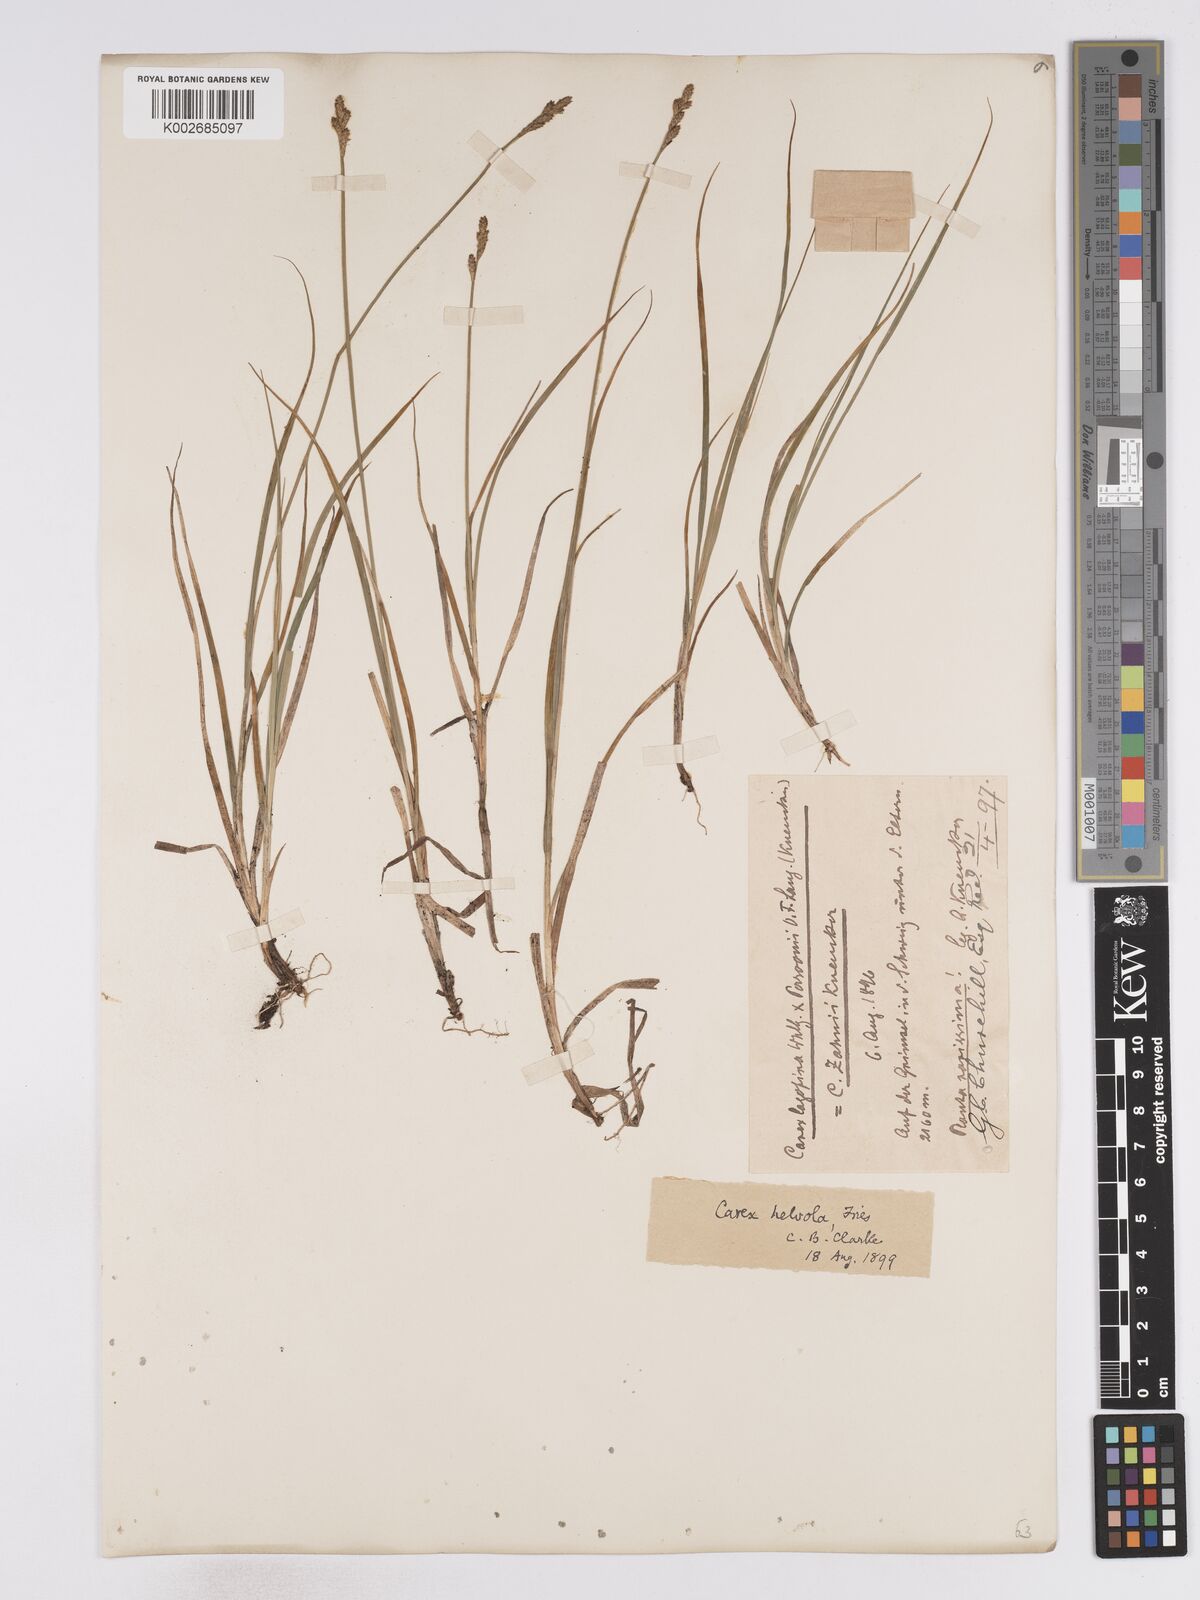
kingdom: Plantae
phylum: Tracheophyta
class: Liliopsida
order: Poales
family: Cyperaceae
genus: Carex
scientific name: Carex brunnescens
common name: Brown sedge
